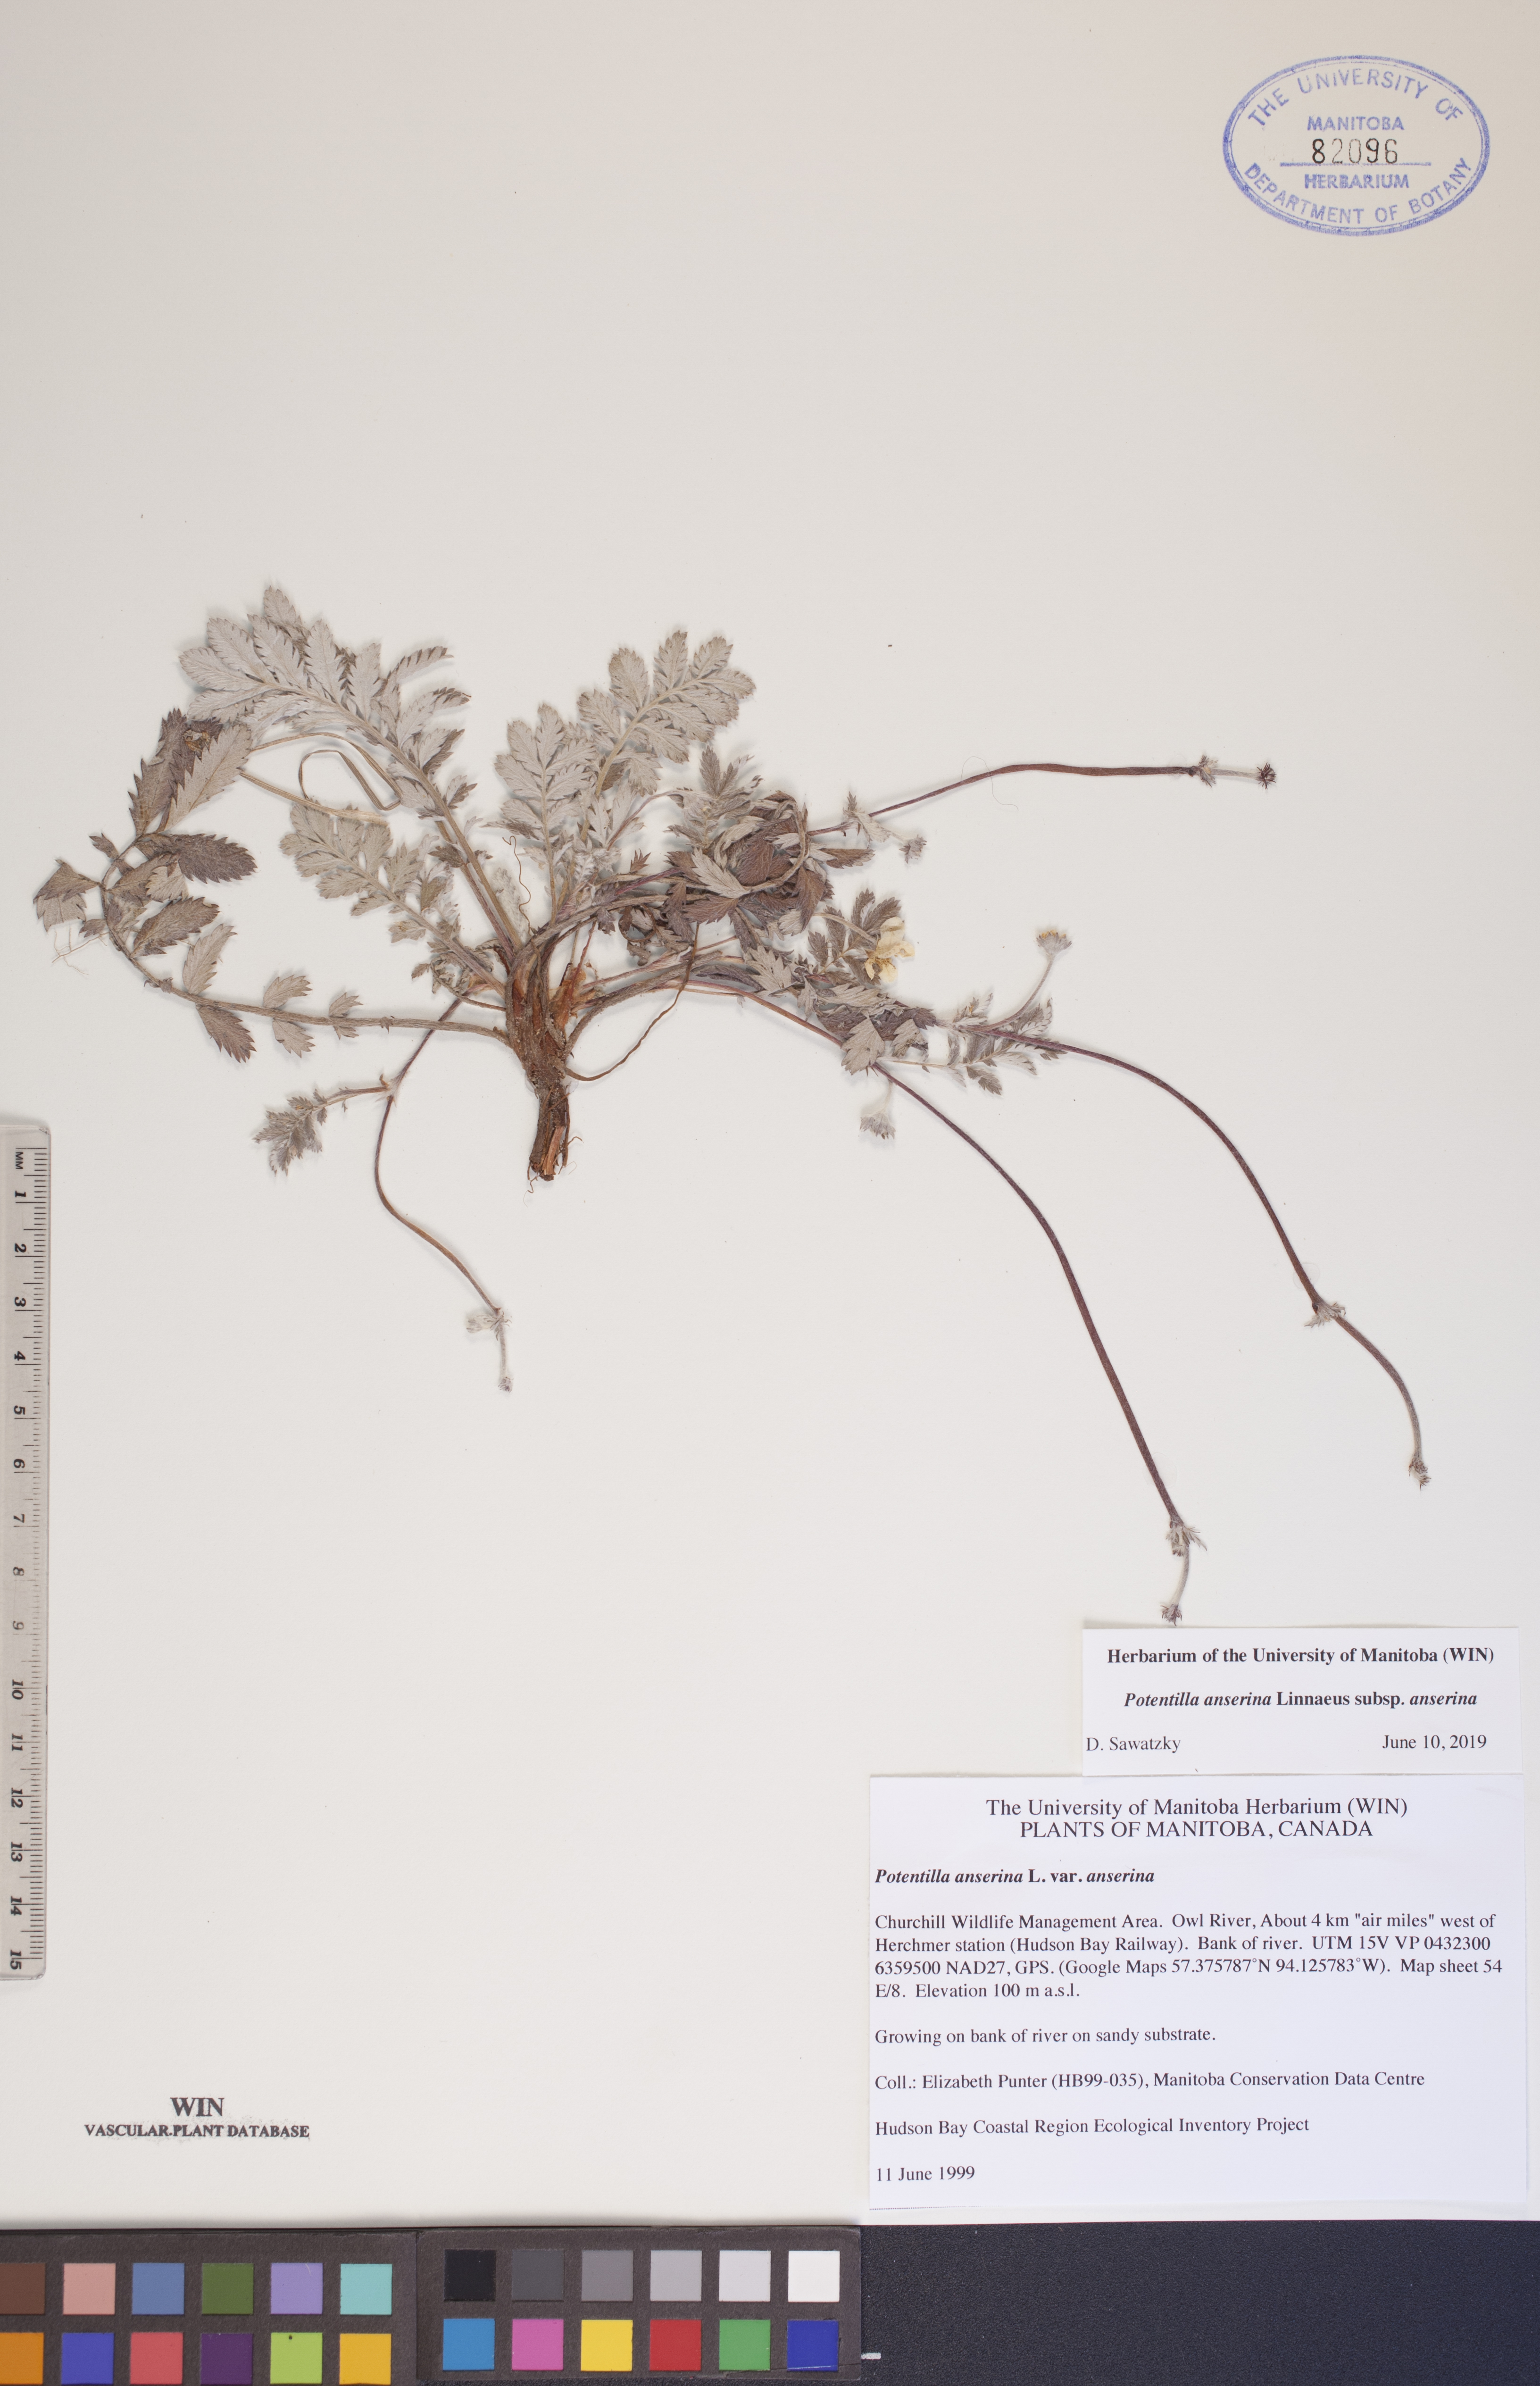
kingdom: Plantae
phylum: Tracheophyta
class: Magnoliopsida
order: Rosales
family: Rosaceae
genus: Argentina
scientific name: Argentina anserina
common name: Common silverweed
